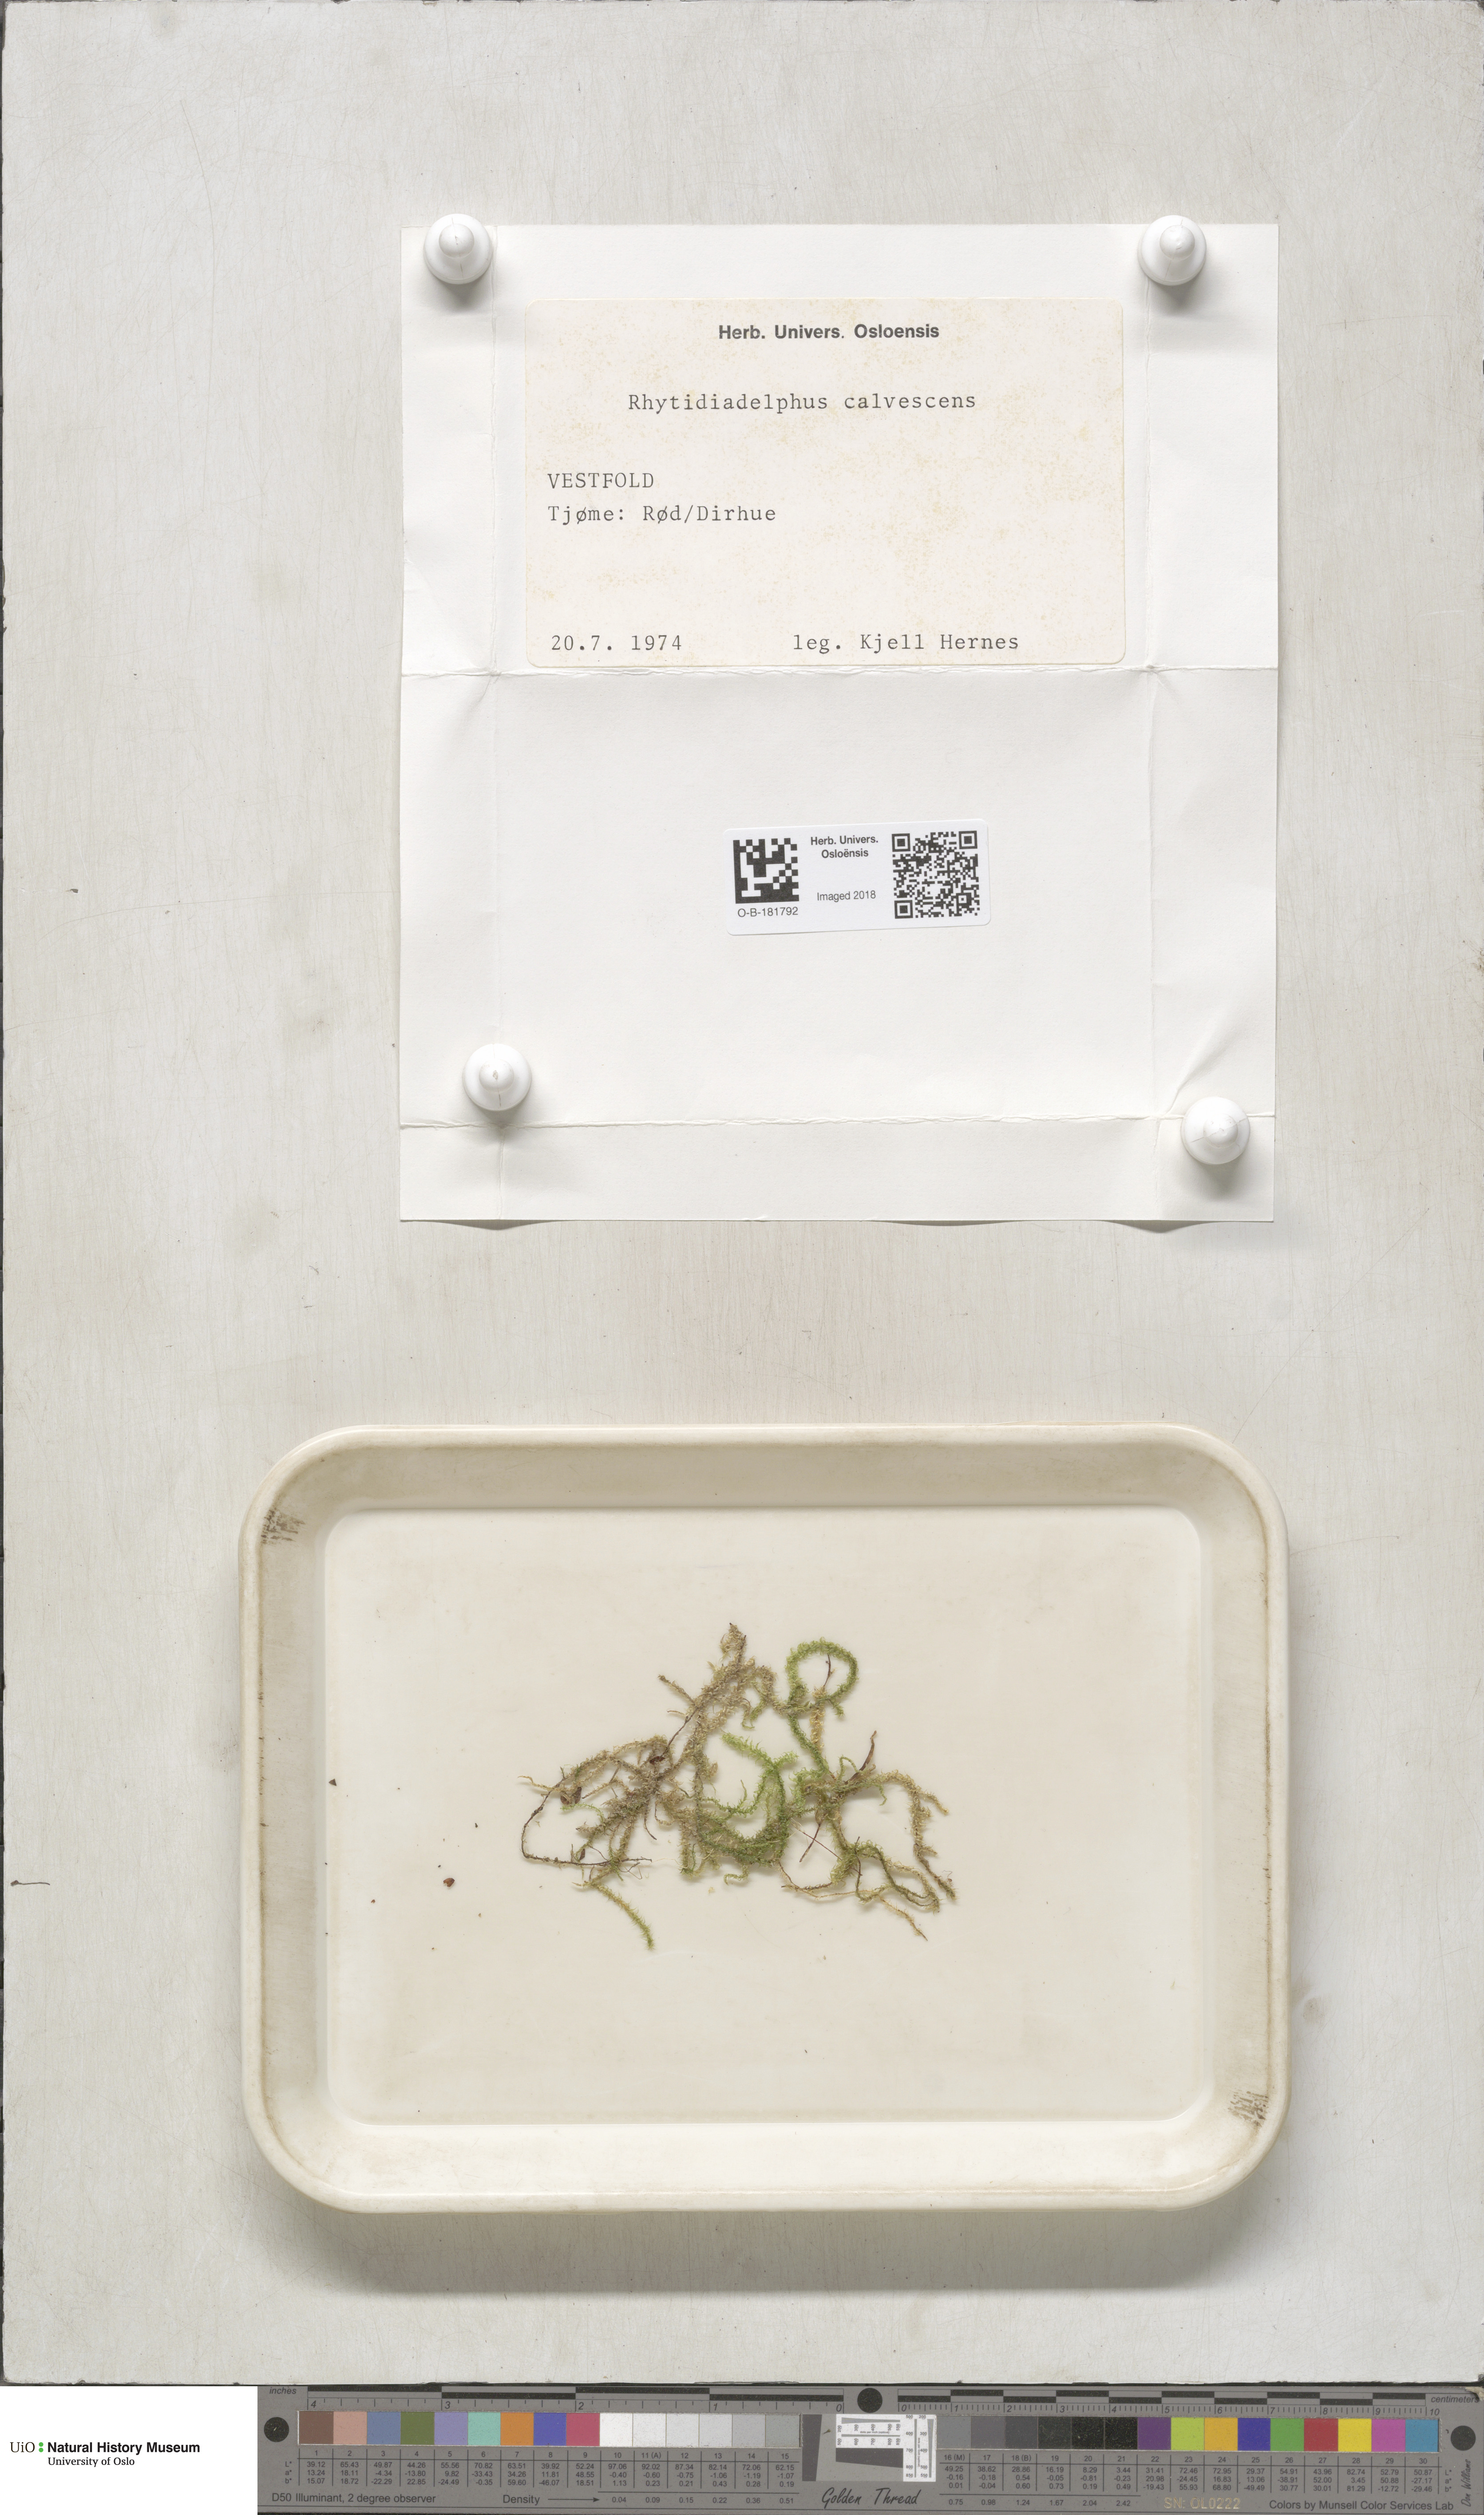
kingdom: Plantae
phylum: Bryophyta
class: Bryopsida
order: Hypnales
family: Hylocomiaceae
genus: Rhytidiadelphus
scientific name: Rhytidiadelphus subpinnatus
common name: Subpinnate gooseneck moss
